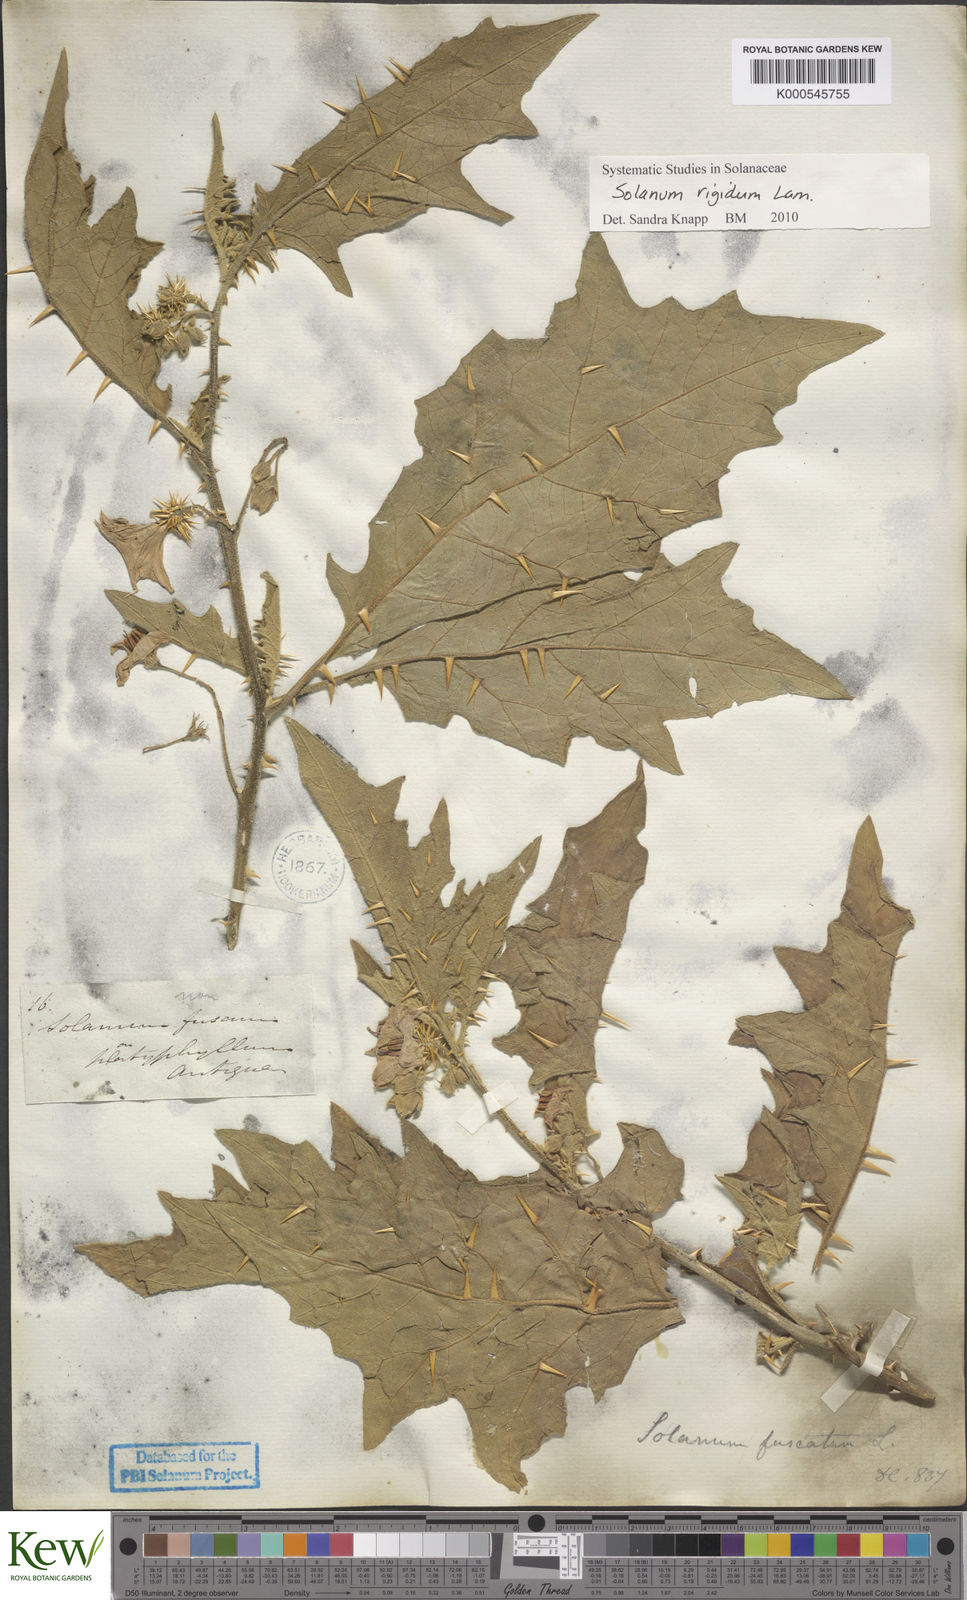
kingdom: Plantae
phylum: Tracheophyta
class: Magnoliopsida
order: Solanales
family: Solanaceae
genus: Solanum
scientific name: Solanum rigidum
